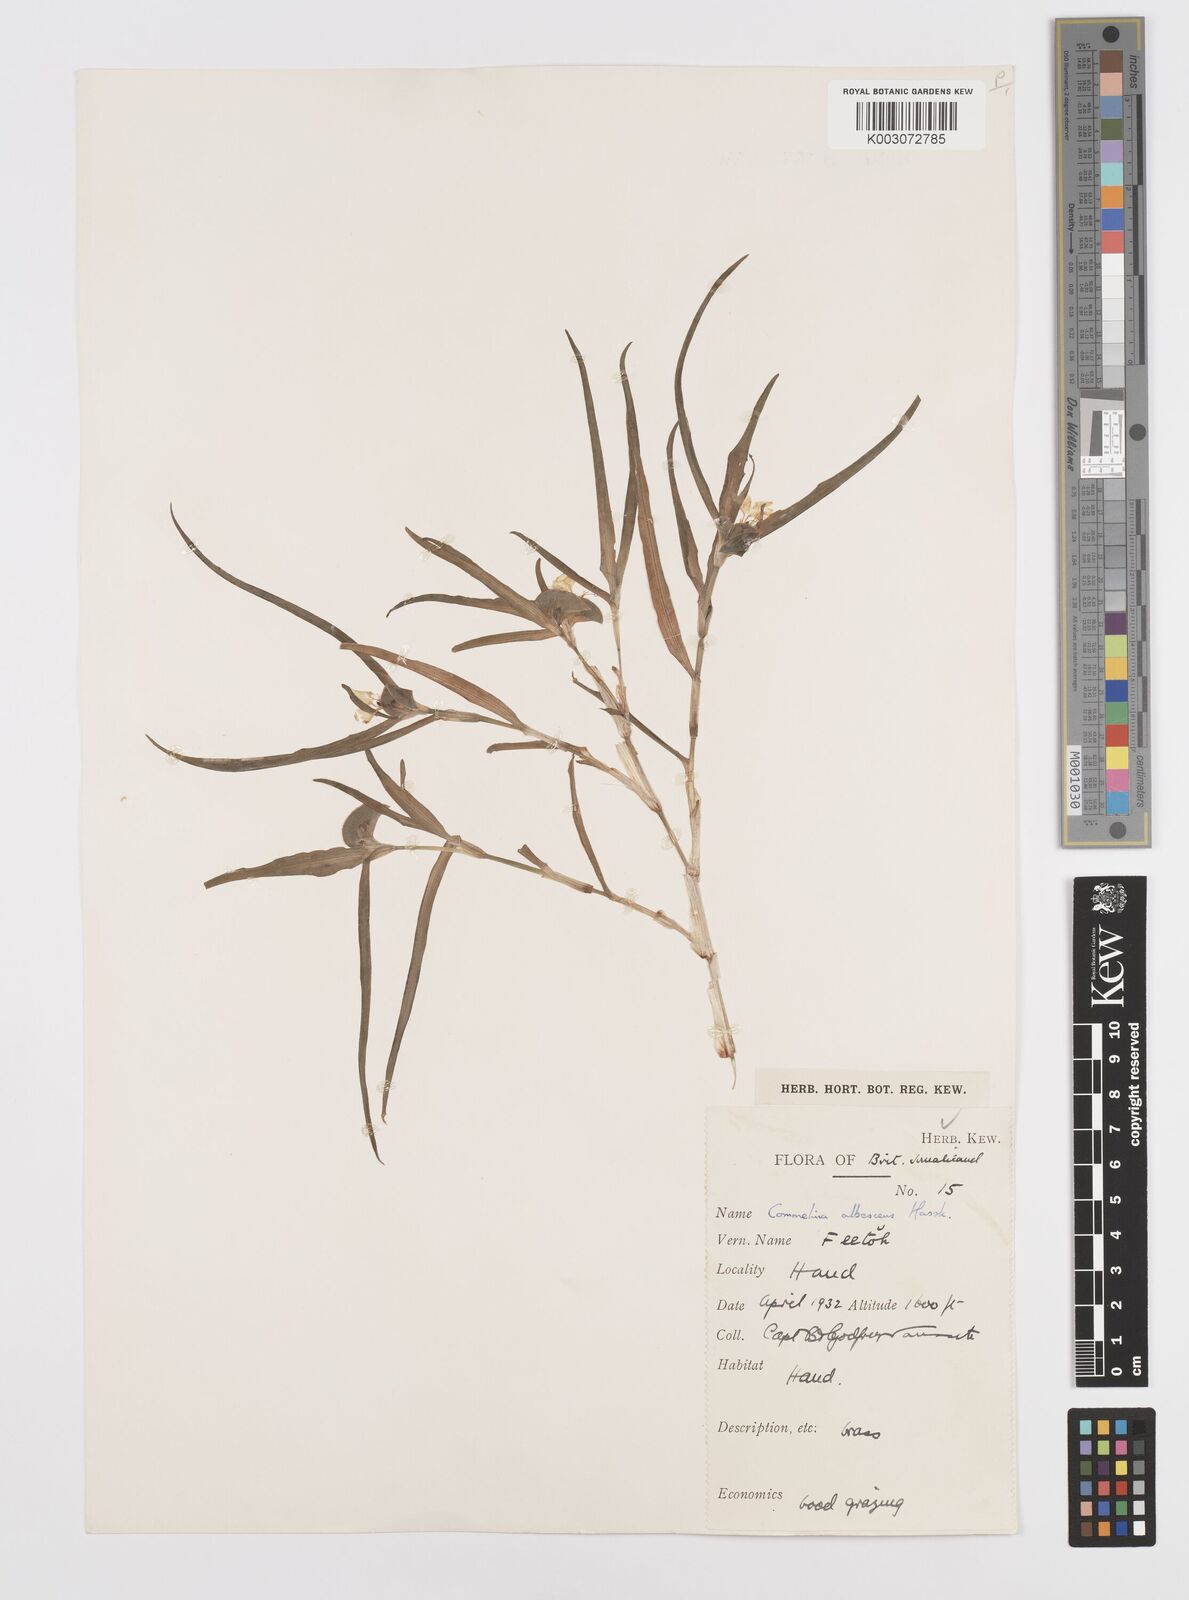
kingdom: Plantae
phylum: Tracheophyta
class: Liliopsida
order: Commelinales
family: Commelinaceae
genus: Commelina
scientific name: Commelina albescens
